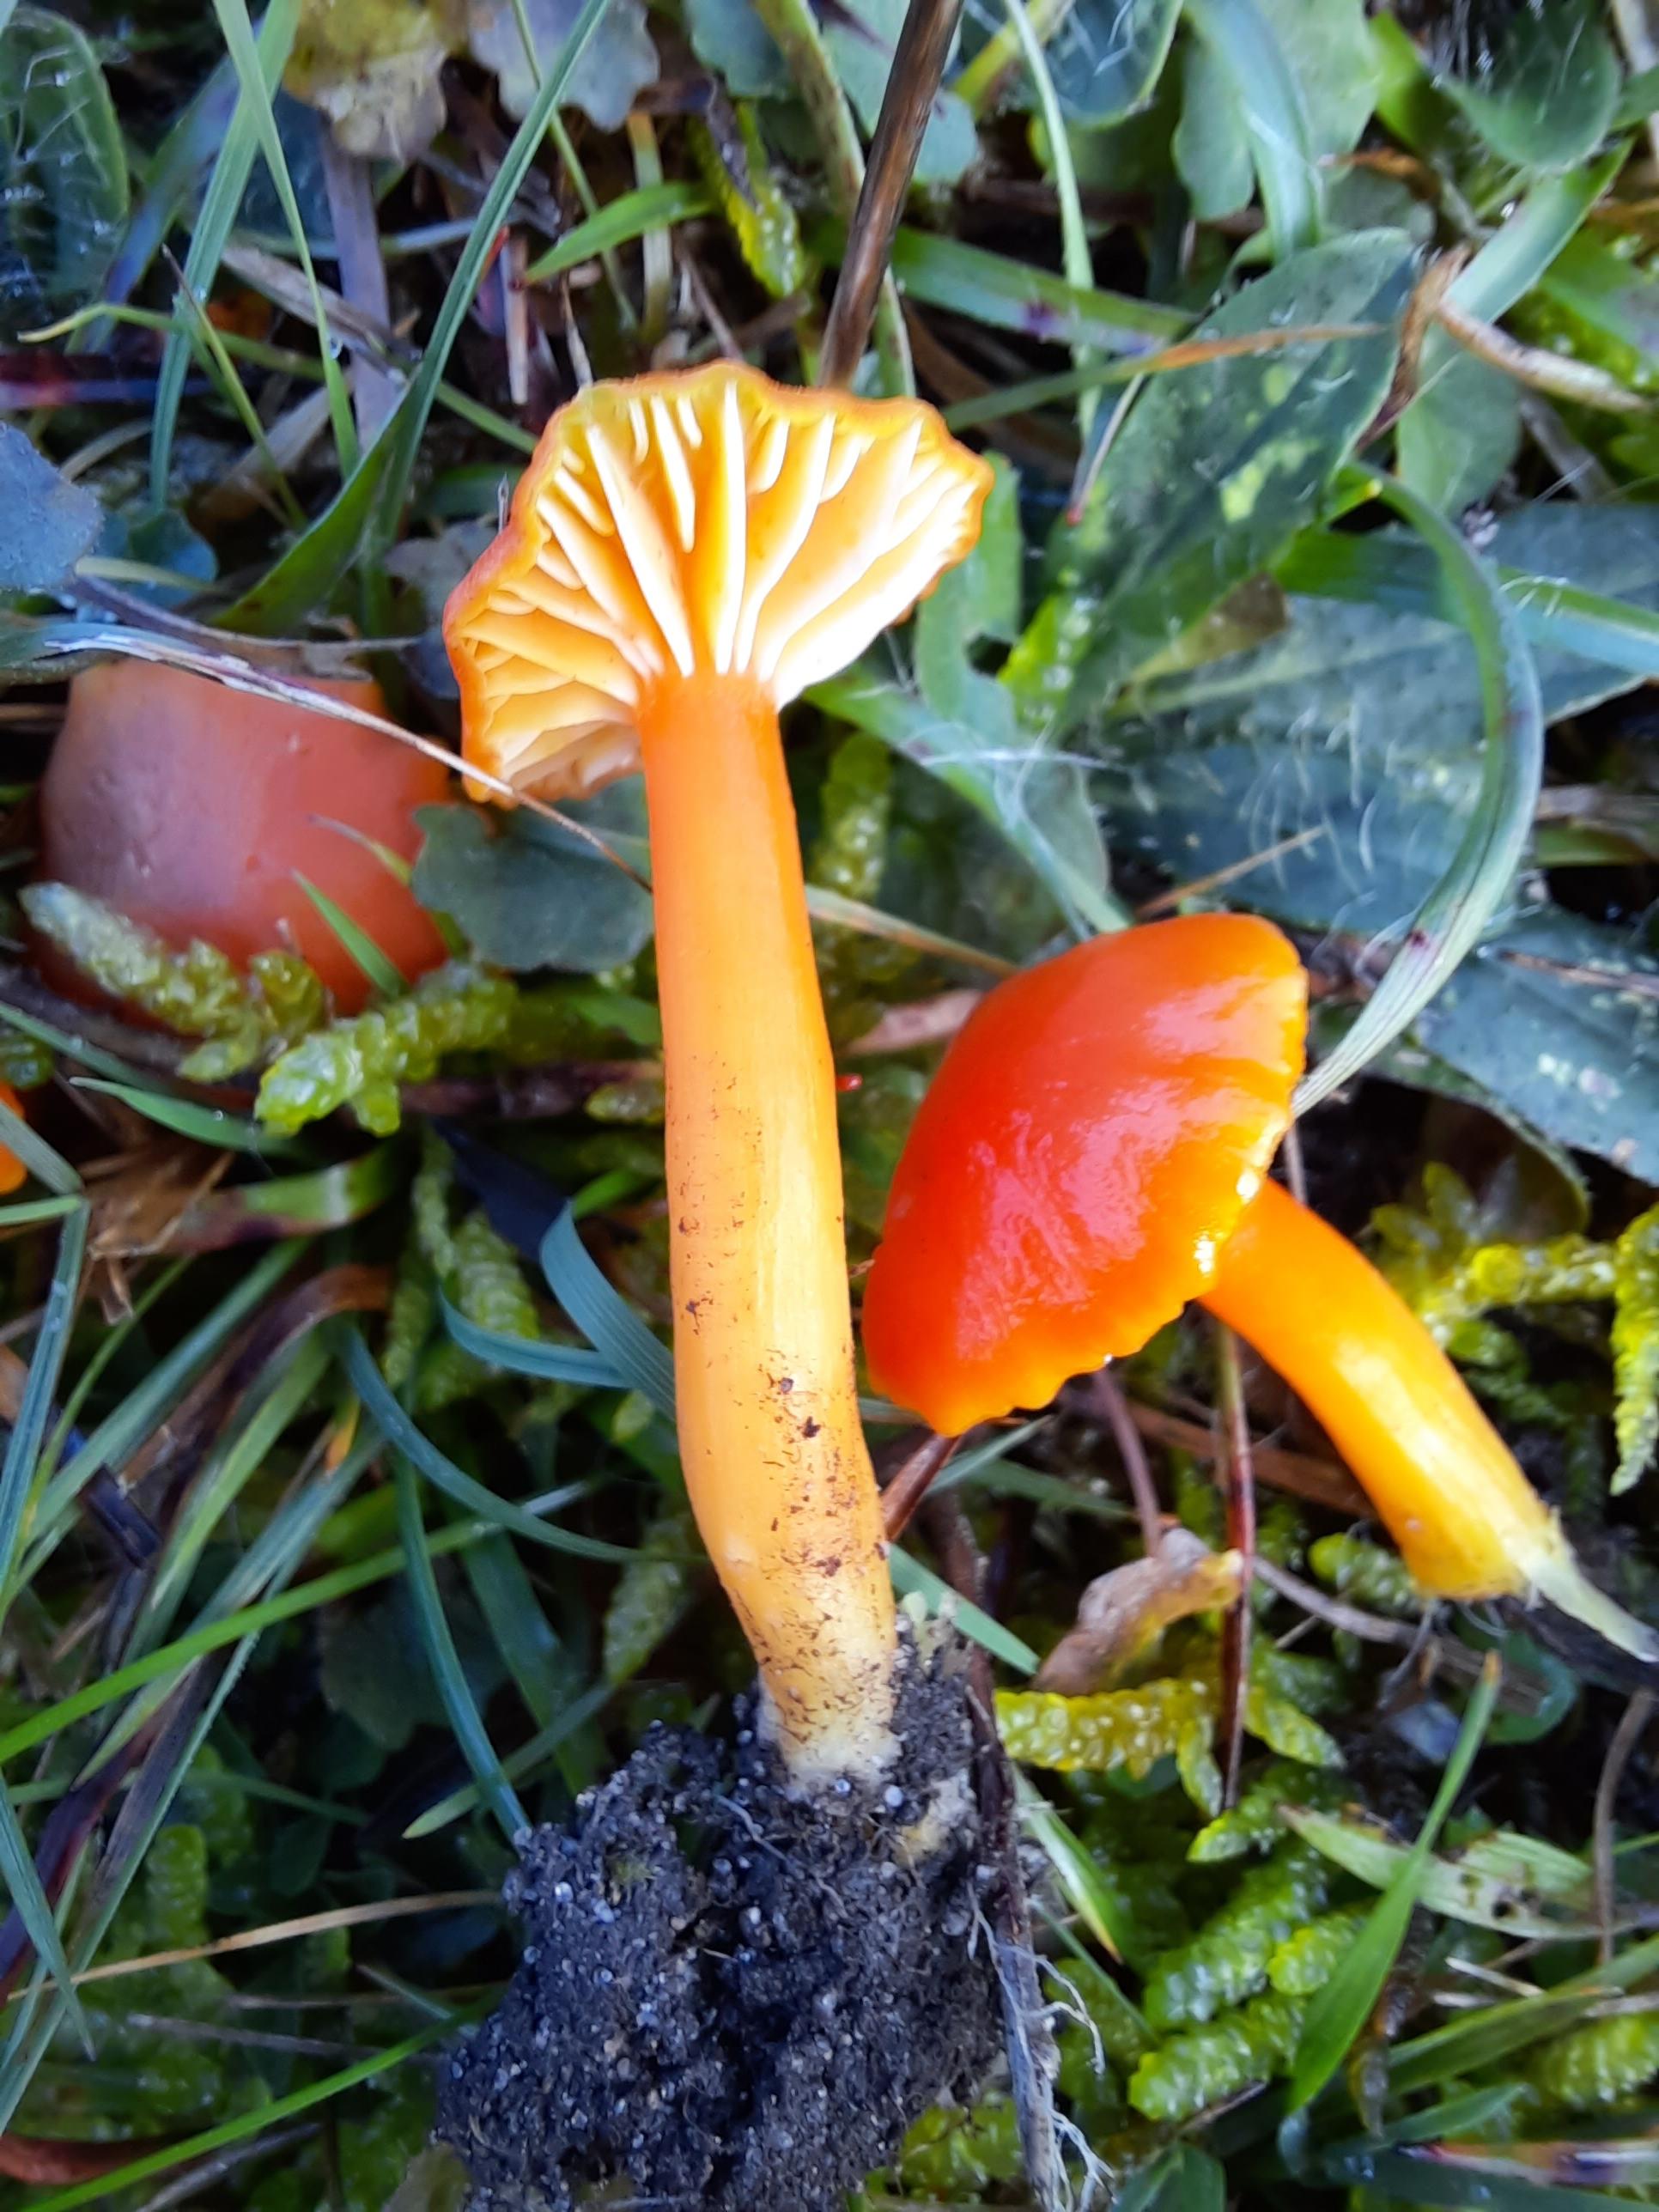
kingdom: Fungi
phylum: Basidiomycota
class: Agaricomycetes
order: Agaricales
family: Hygrophoraceae
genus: Hygrocybe
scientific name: Hygrocybe reidii
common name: honning-vokshat
